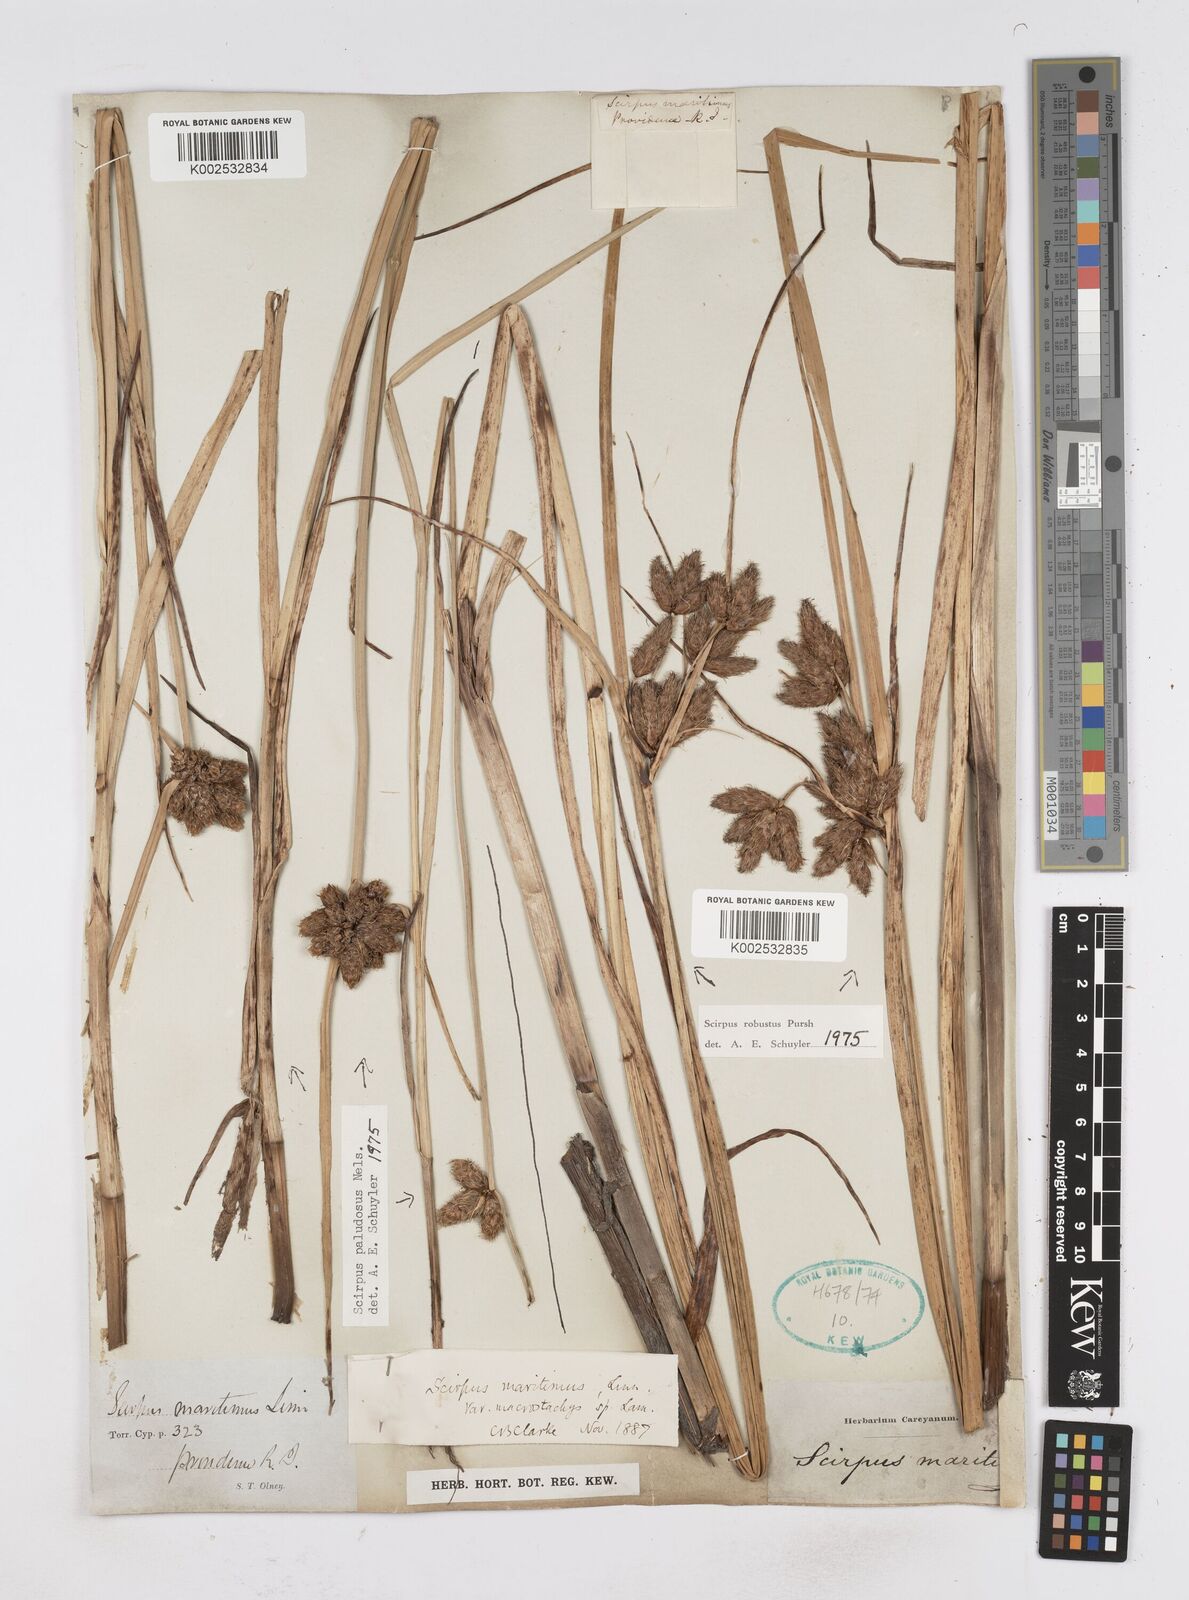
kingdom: Plantae
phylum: Tracheophyta
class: Liliopsida
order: Poales
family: Cyperaceae
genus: Bolboschoenus
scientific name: Bolboschoenus maritimus
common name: Sea club-rush
